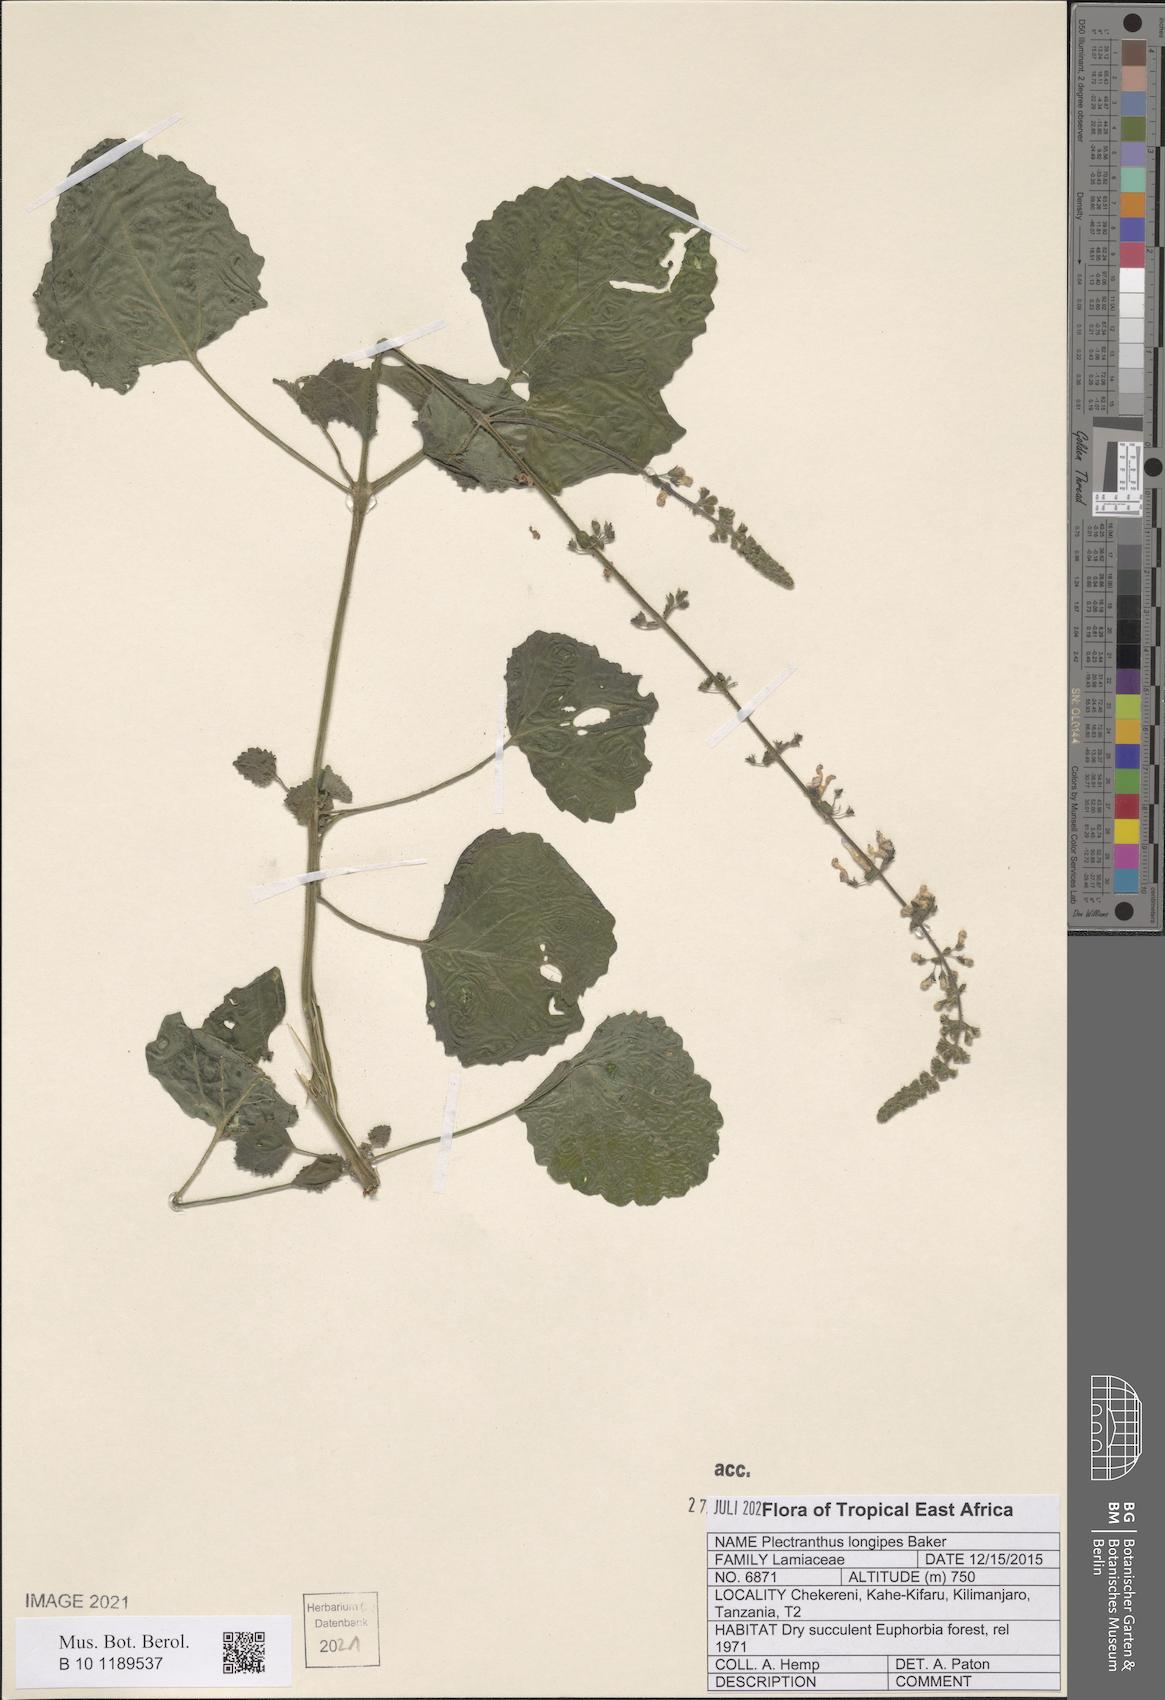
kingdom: Plantae
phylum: Tracheophyta
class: Magnoliopsida
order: Lamiales
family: Lamiaceae
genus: Equilabium
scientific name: Equilabium longipes
